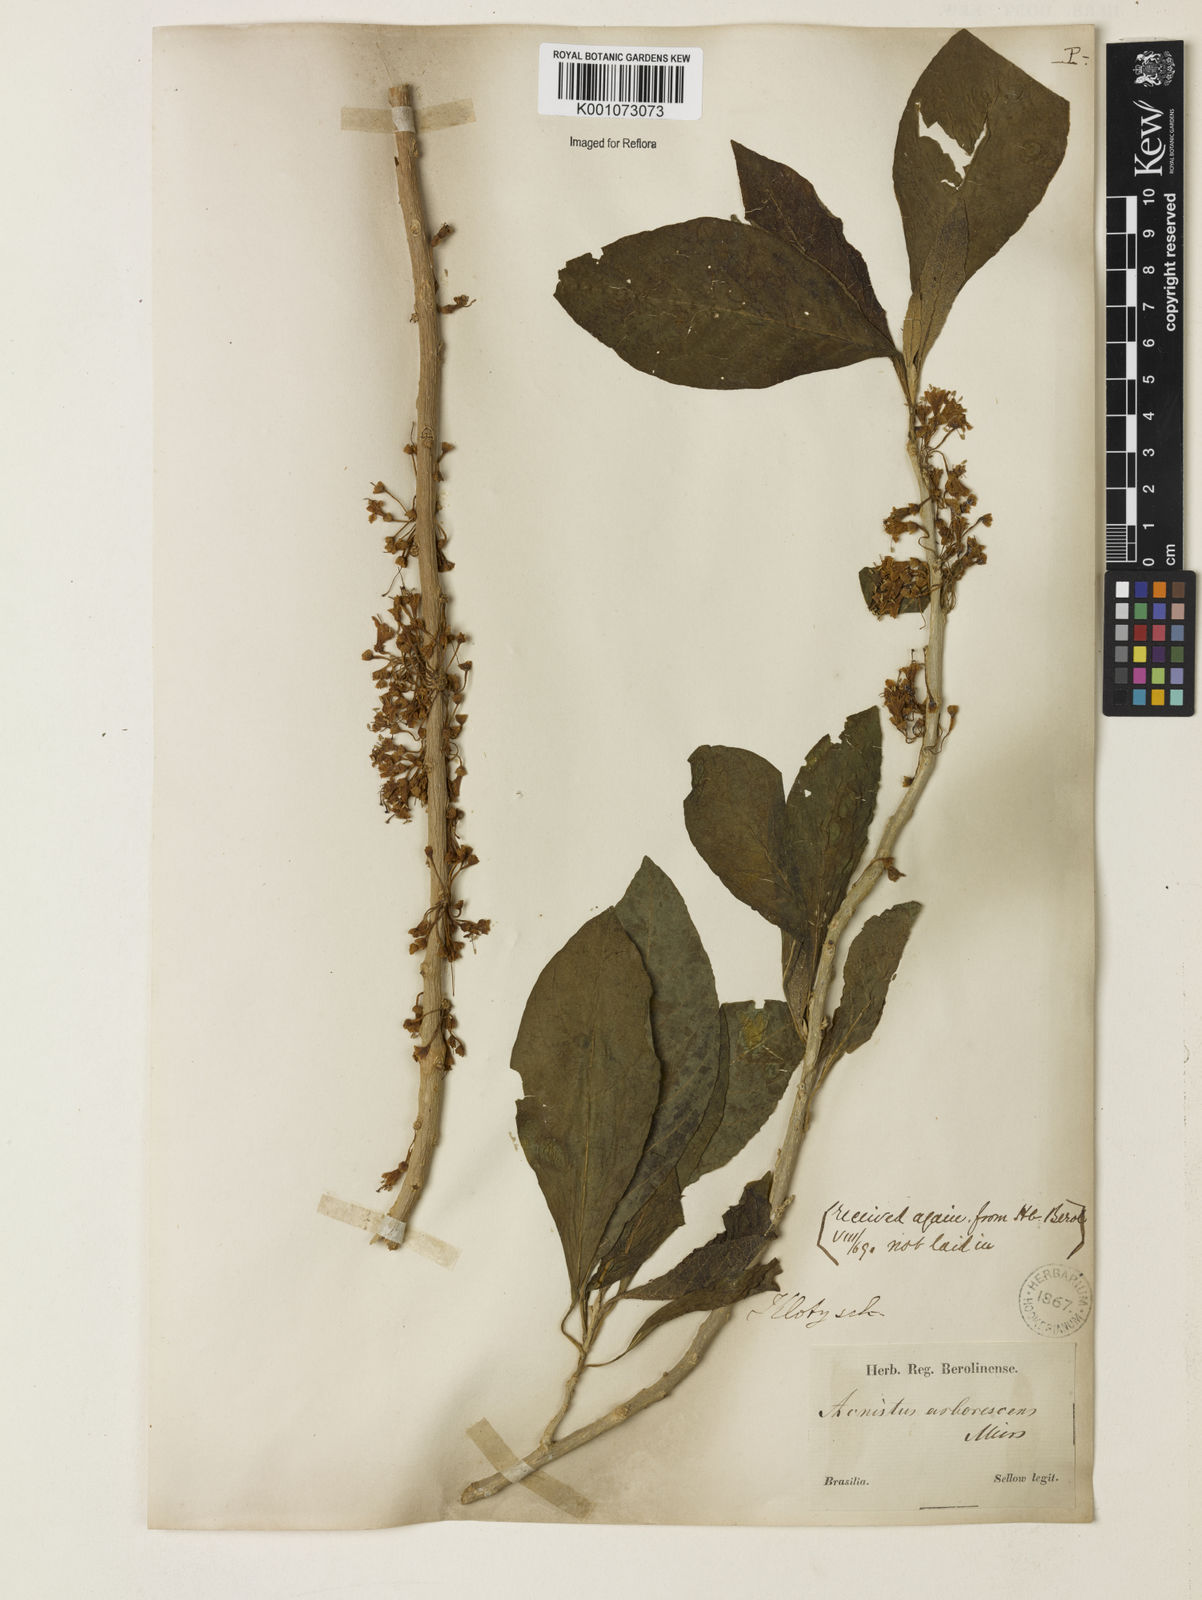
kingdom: Plantae
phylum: Tracheophyta
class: Magnoliopsida
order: Solanales
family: Solanaceae
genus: Iochroma
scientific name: Iochroma arborescens
